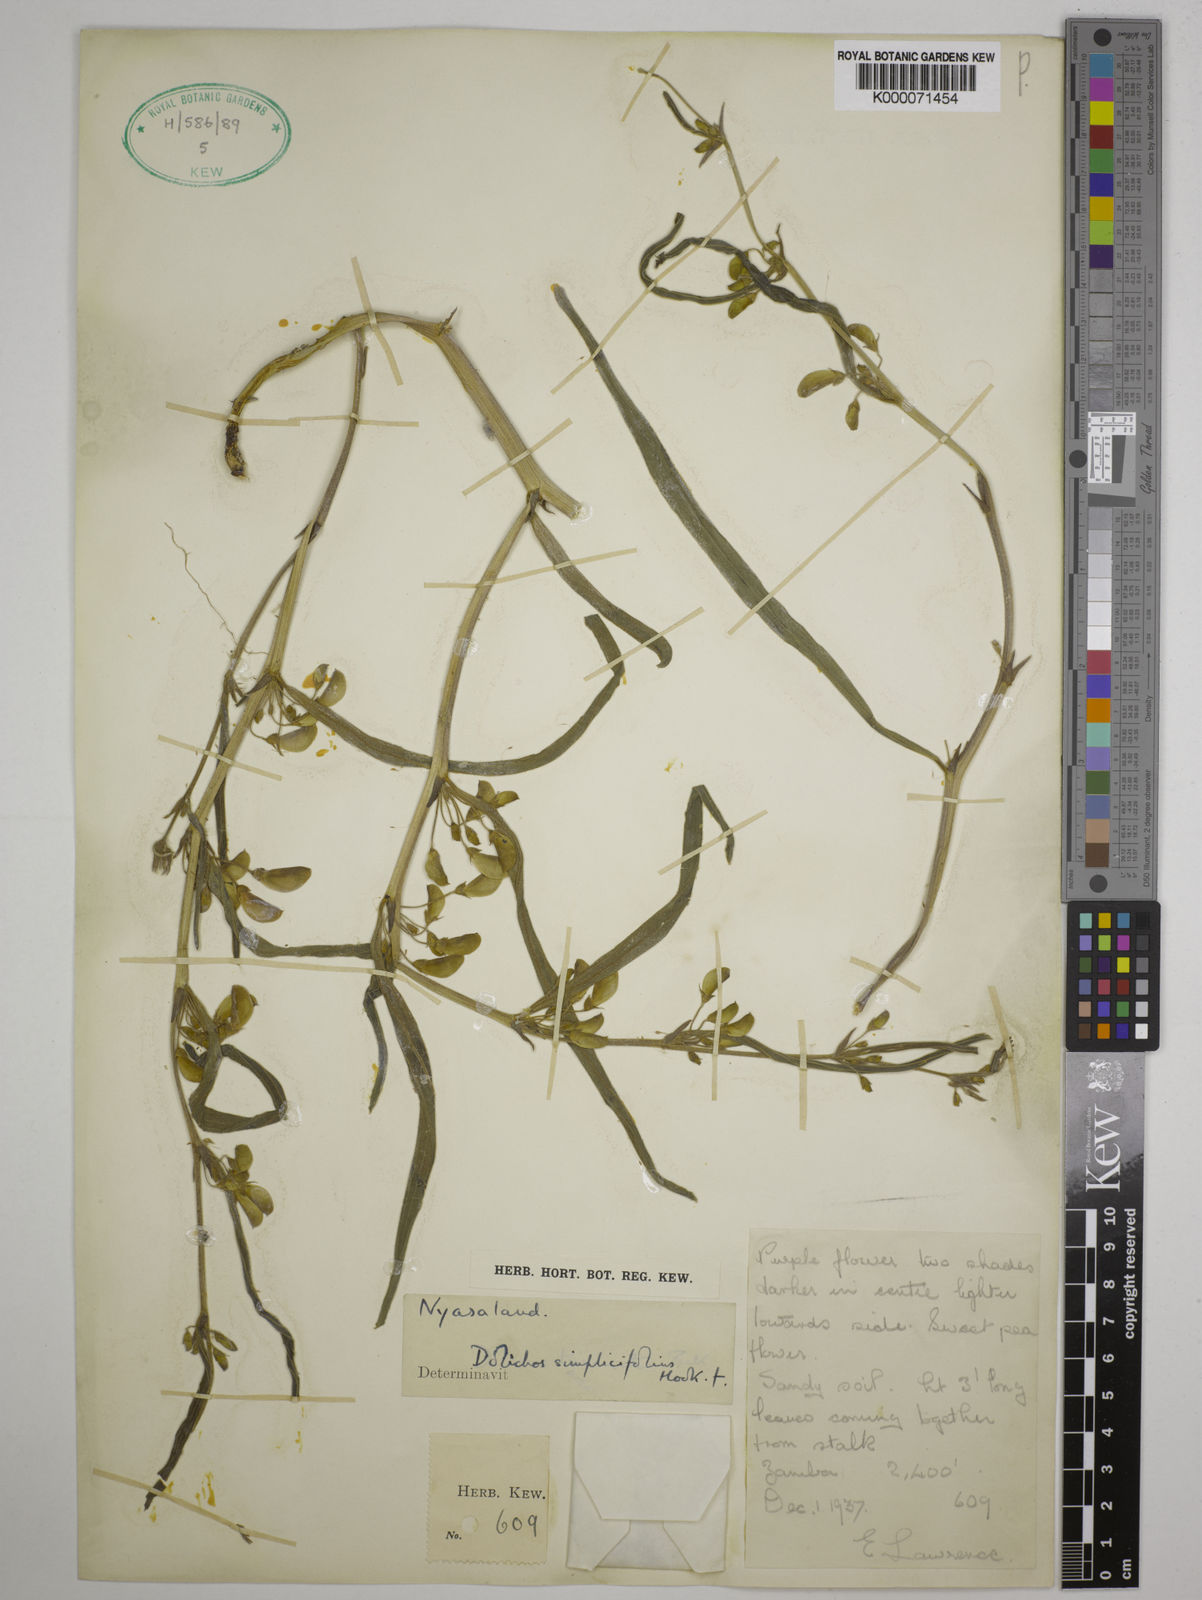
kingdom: Plantae
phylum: Tracheophyta
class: Magnoliopsida
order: Fabales
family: Fabaceae
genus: Dolichos
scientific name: Dolichos simplicifolius
